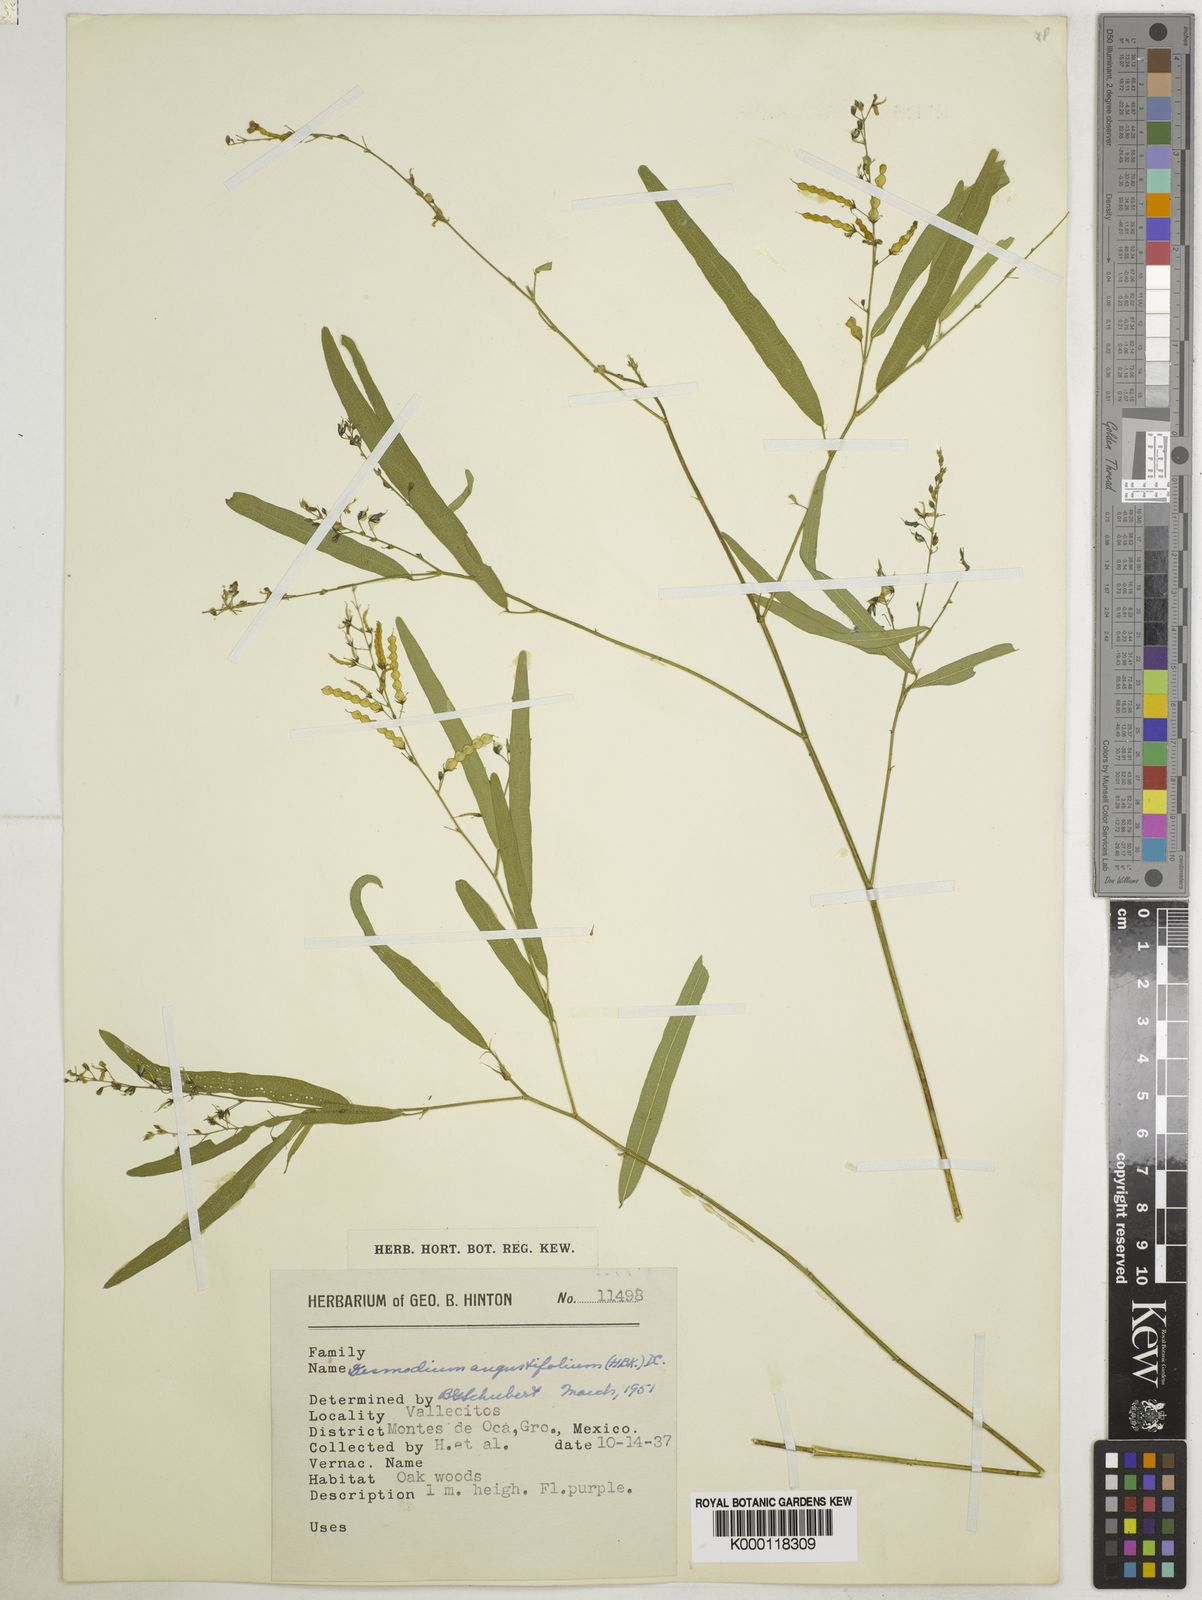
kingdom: Plantae
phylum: Tracheophyta
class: Magnoliopsida
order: Fabales
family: Fabaceae
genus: Desmodium
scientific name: Desmodium angustifolium
